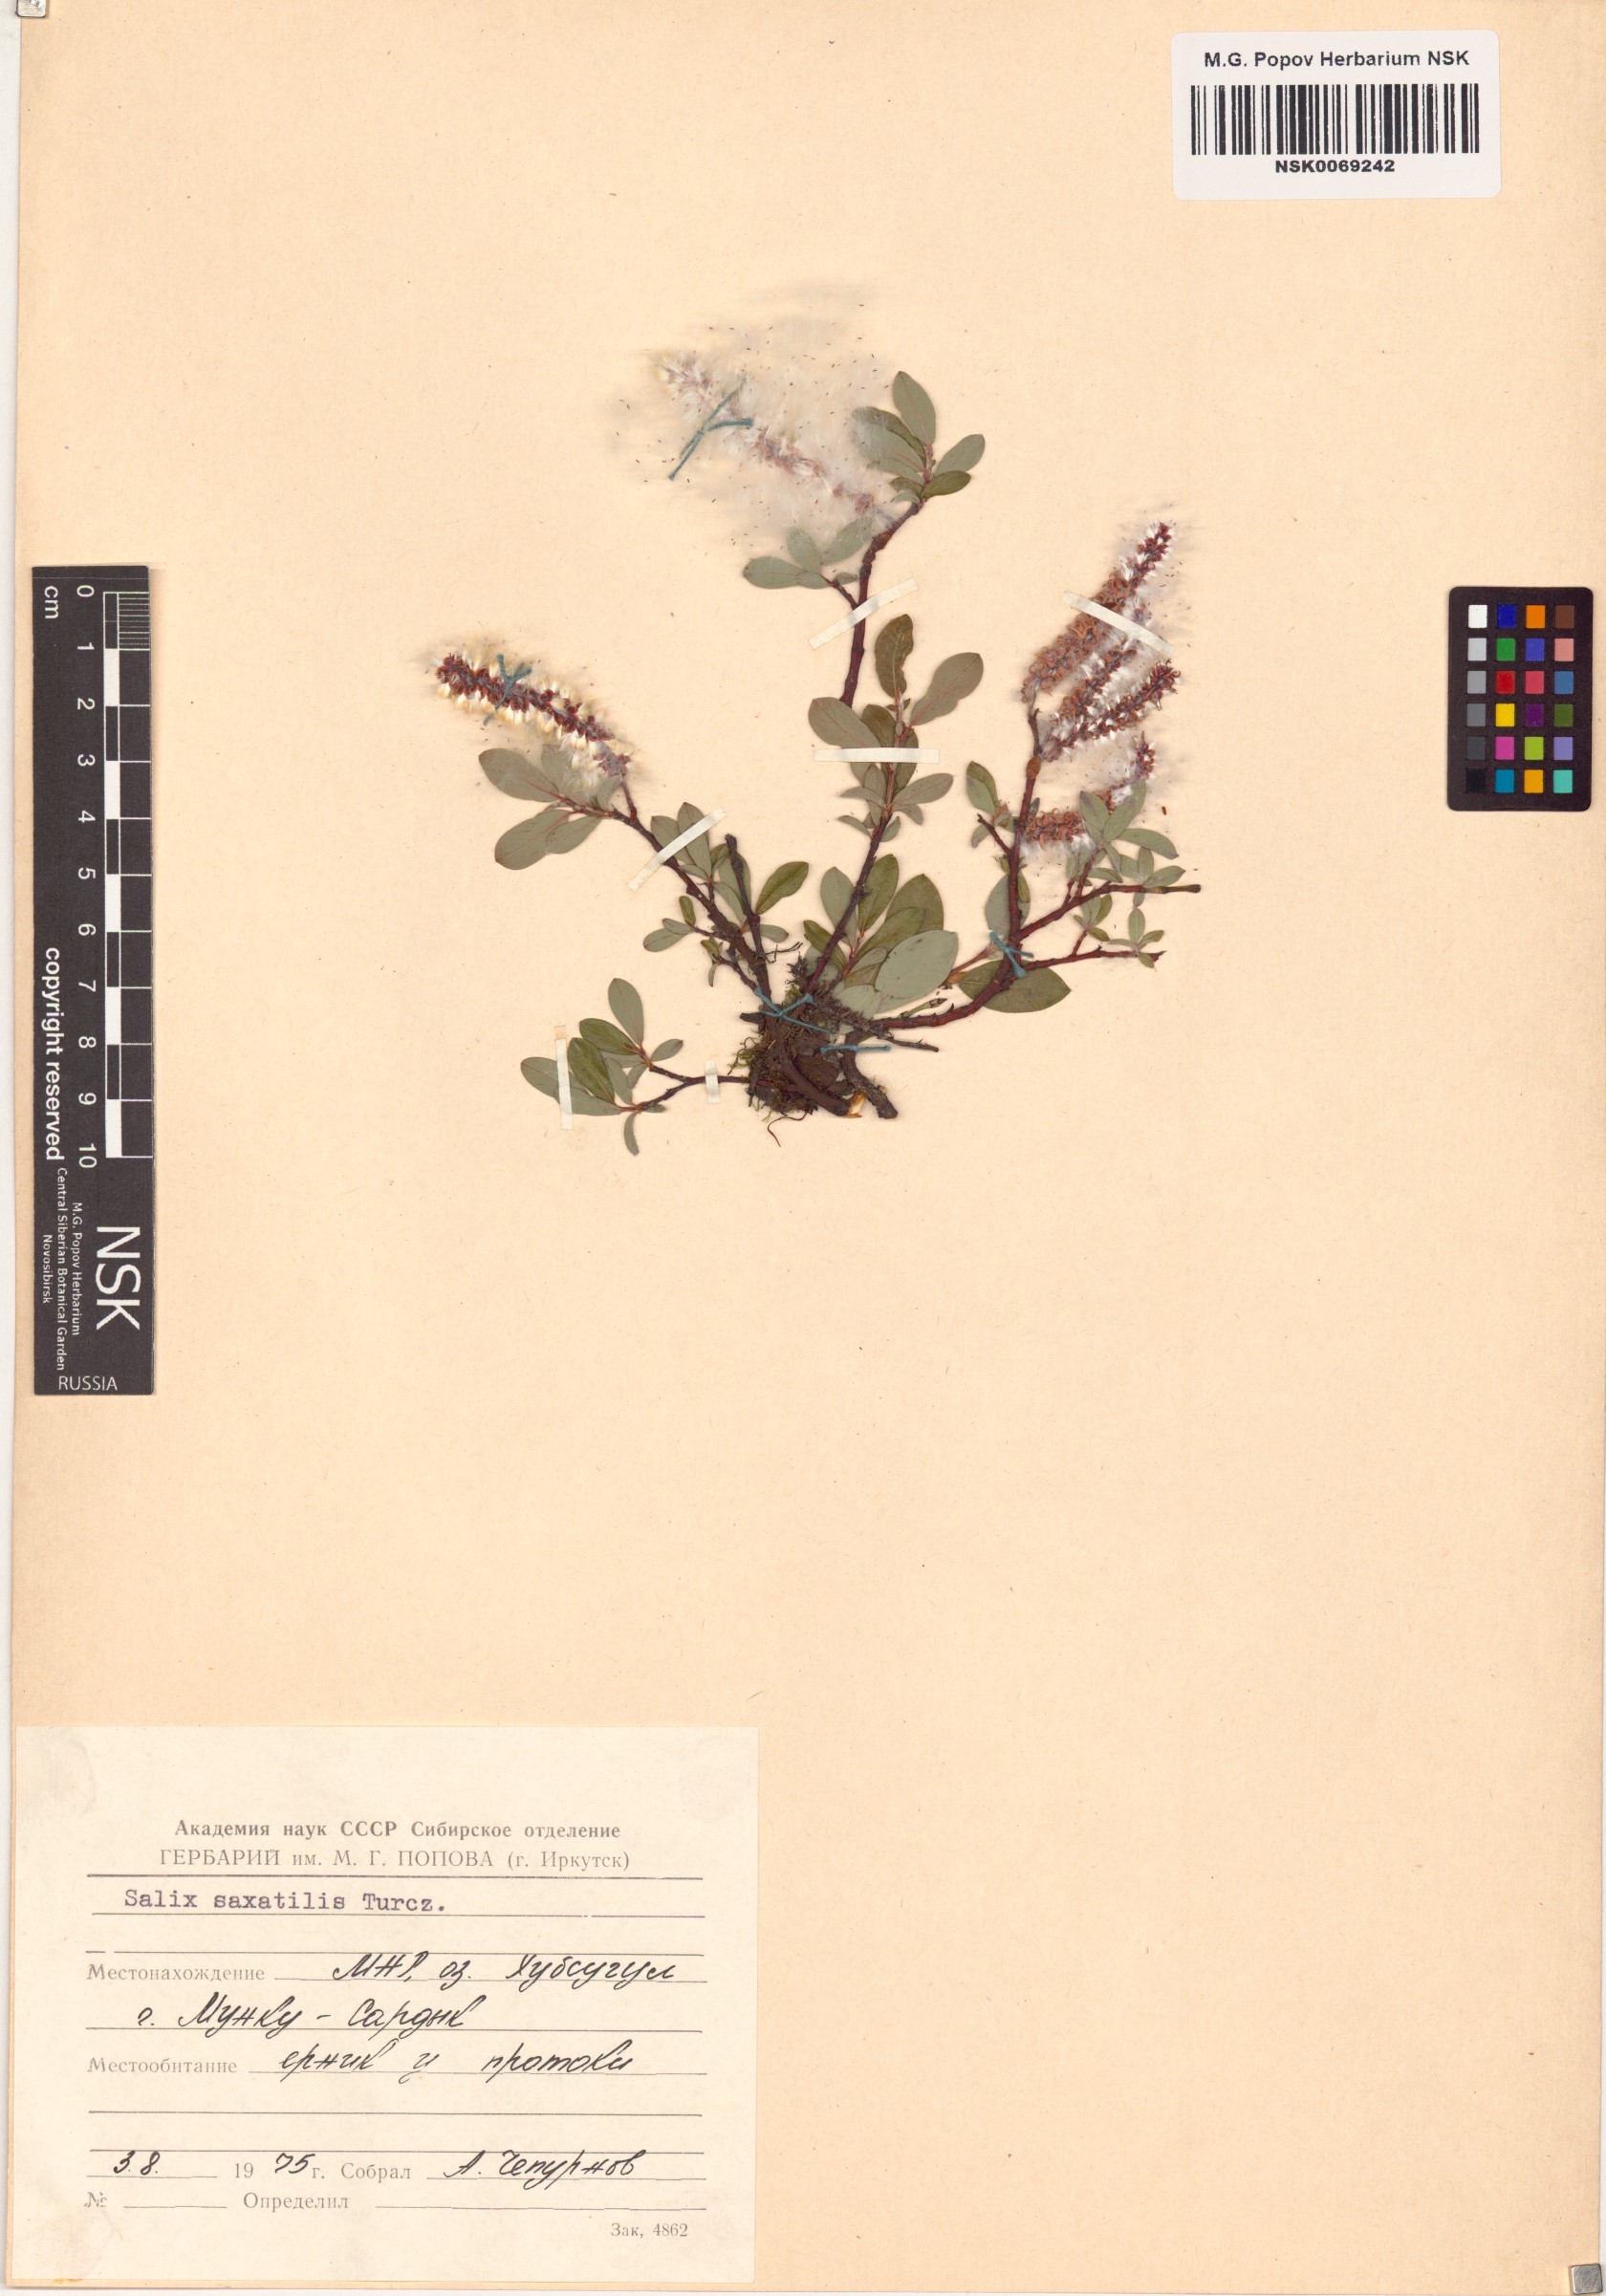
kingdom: Plantae
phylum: Tracheophyta
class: Magnoliopsida
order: Malpighiales
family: Salicaceae
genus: Salix
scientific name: Salix saxatilis
